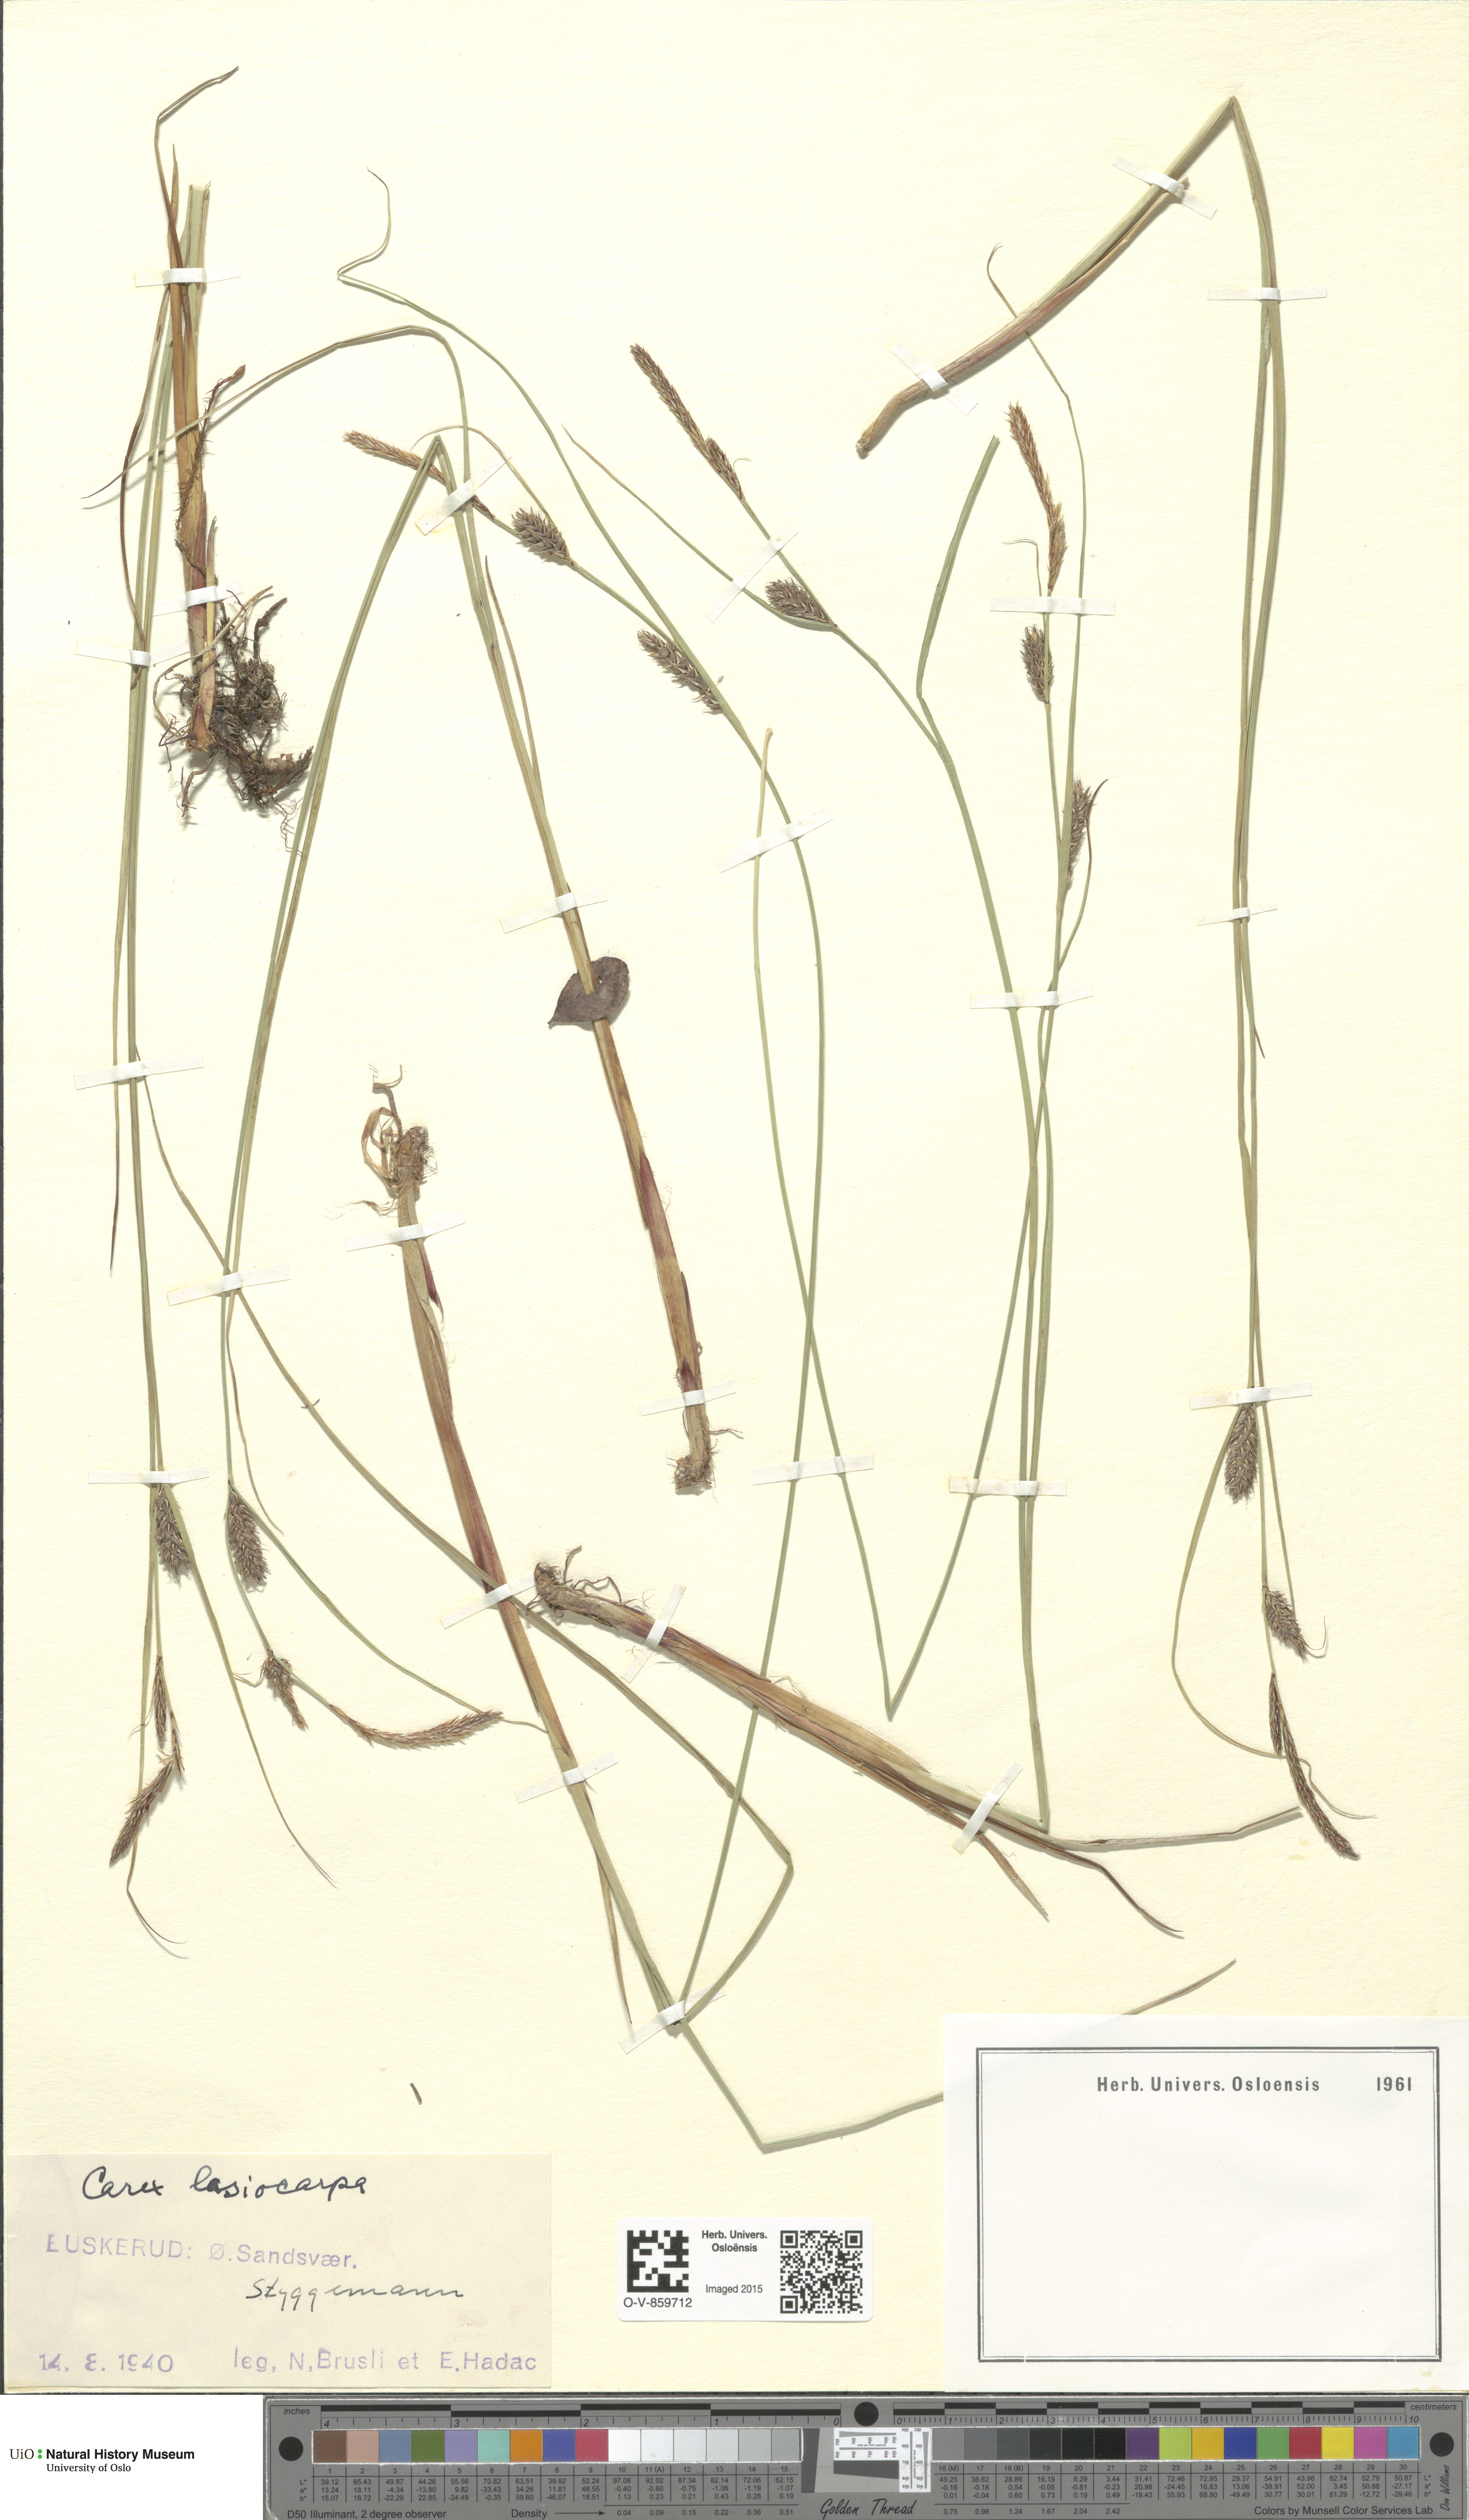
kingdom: Plantae
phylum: Tracheophyta
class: Liliopsida
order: Poales
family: Cyperaceae
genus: Carex
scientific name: Carex lasiocarpa
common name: Slender sedge
